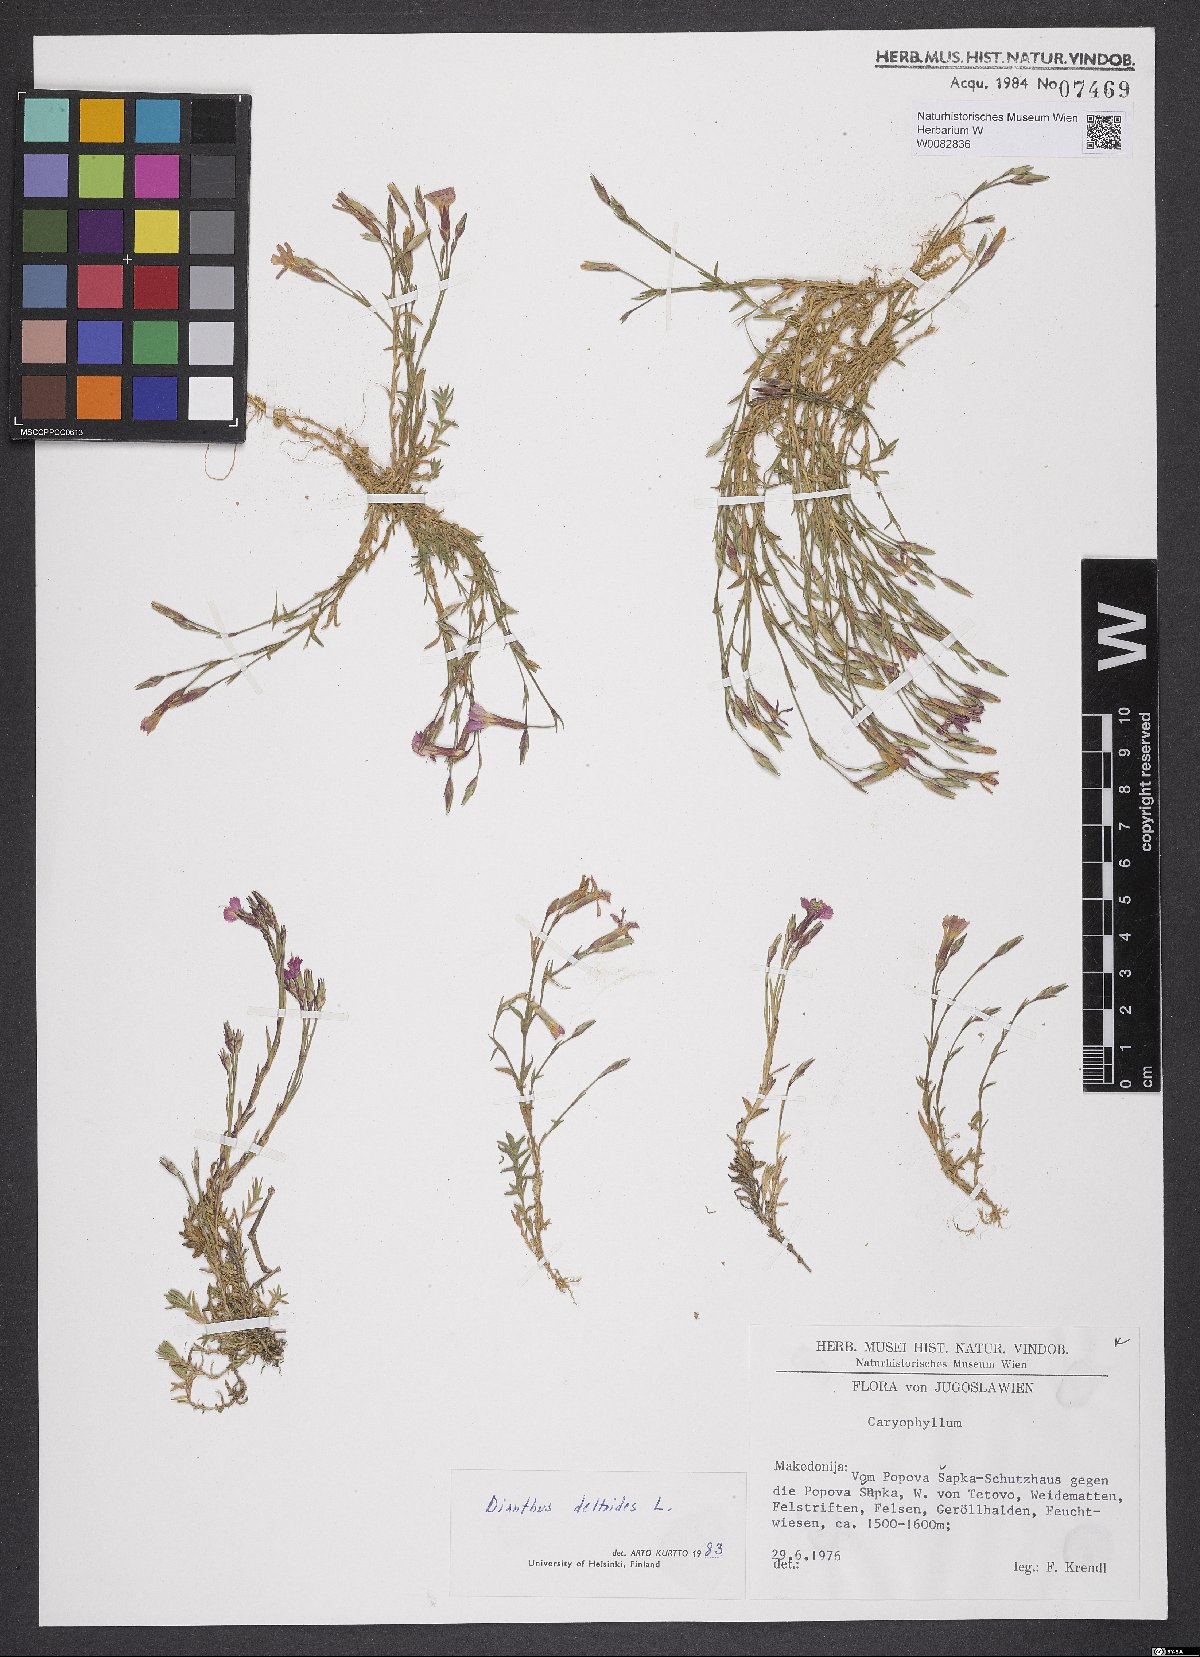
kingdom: Plantae
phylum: Tracheophyta
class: Magnoliopsida
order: Caryophyllales
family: Caryophyllaceae
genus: Dianthus
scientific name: Dianthus deltoides
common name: Maiden pink
